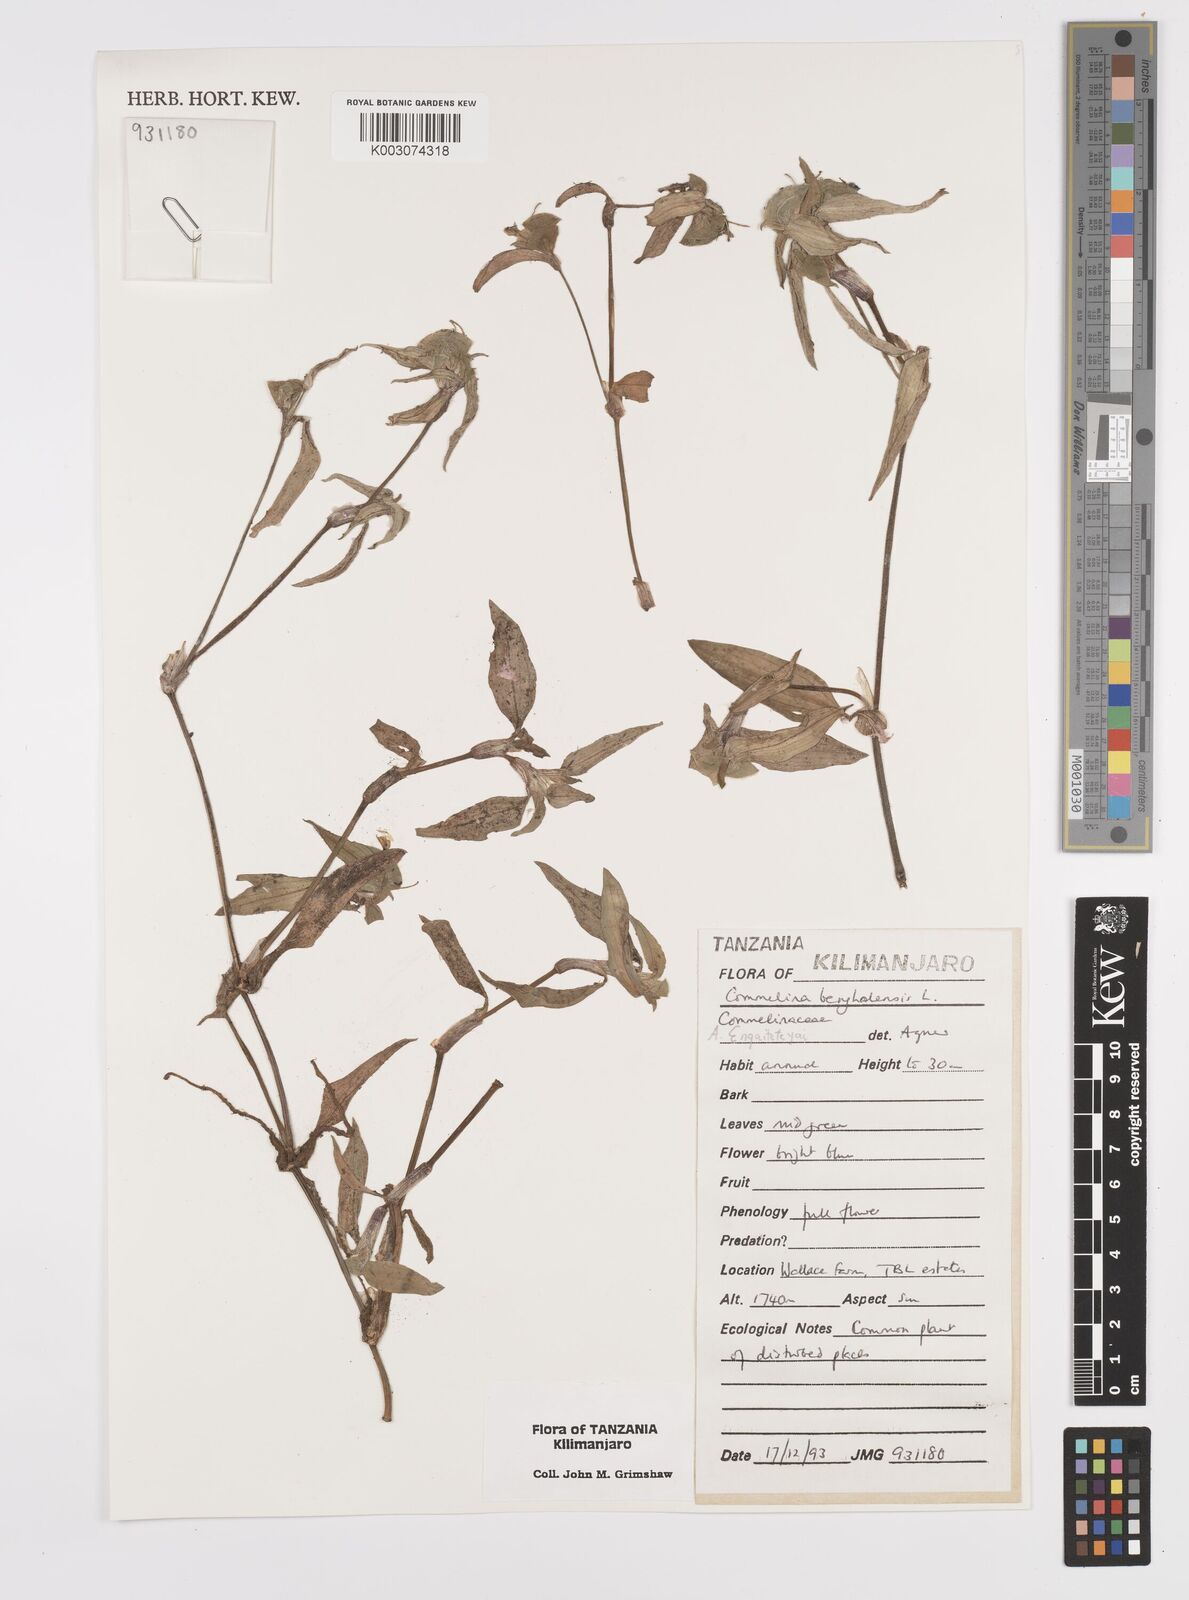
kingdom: Plantae
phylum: Tracheophyta
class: Liliopsida
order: Commelinales
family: Commelinaceae
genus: Commelina
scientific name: Commelina benghalensis
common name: Jio
